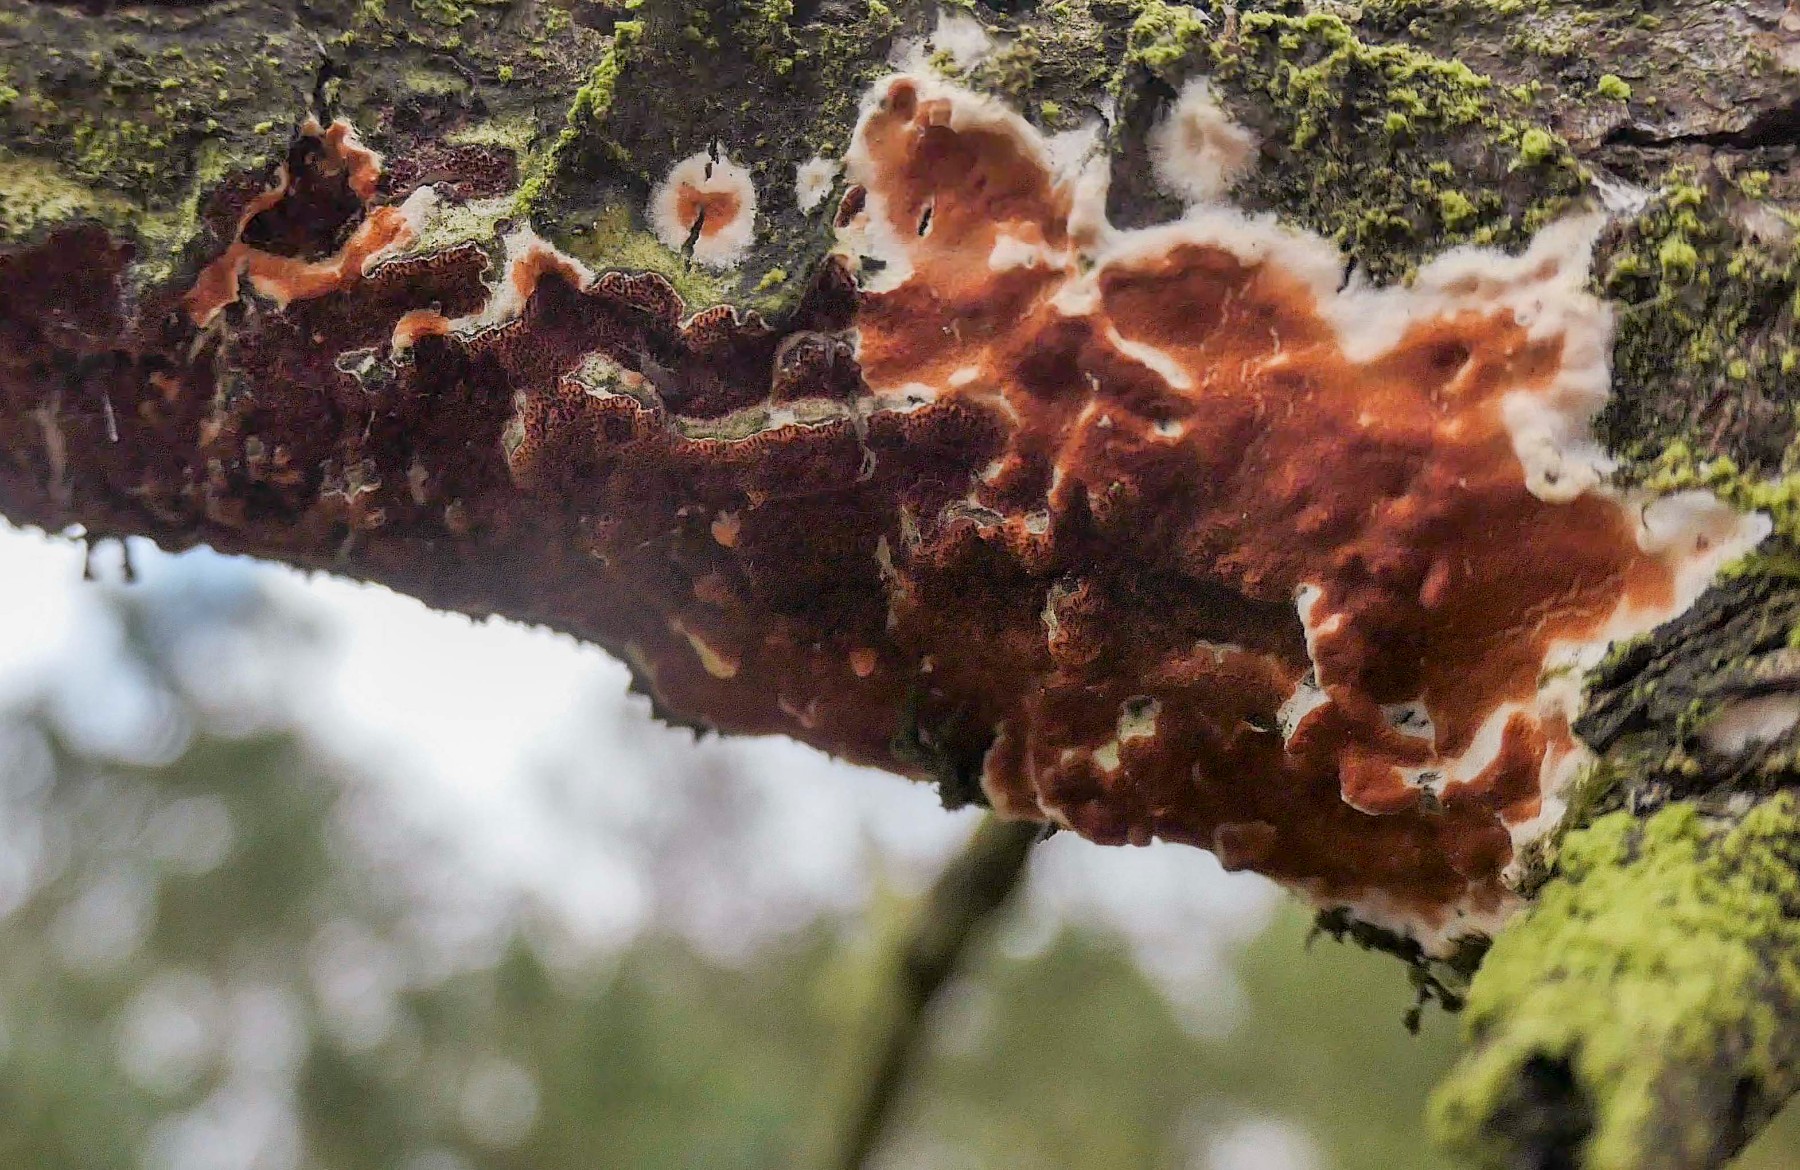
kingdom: Fungi
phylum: Basidiomycota
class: Agaricomycetes
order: Polyporales
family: Irpicaceae
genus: Meruliopsis
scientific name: Meruliopsis taxicola
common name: purpurbrun foldporesvamp
